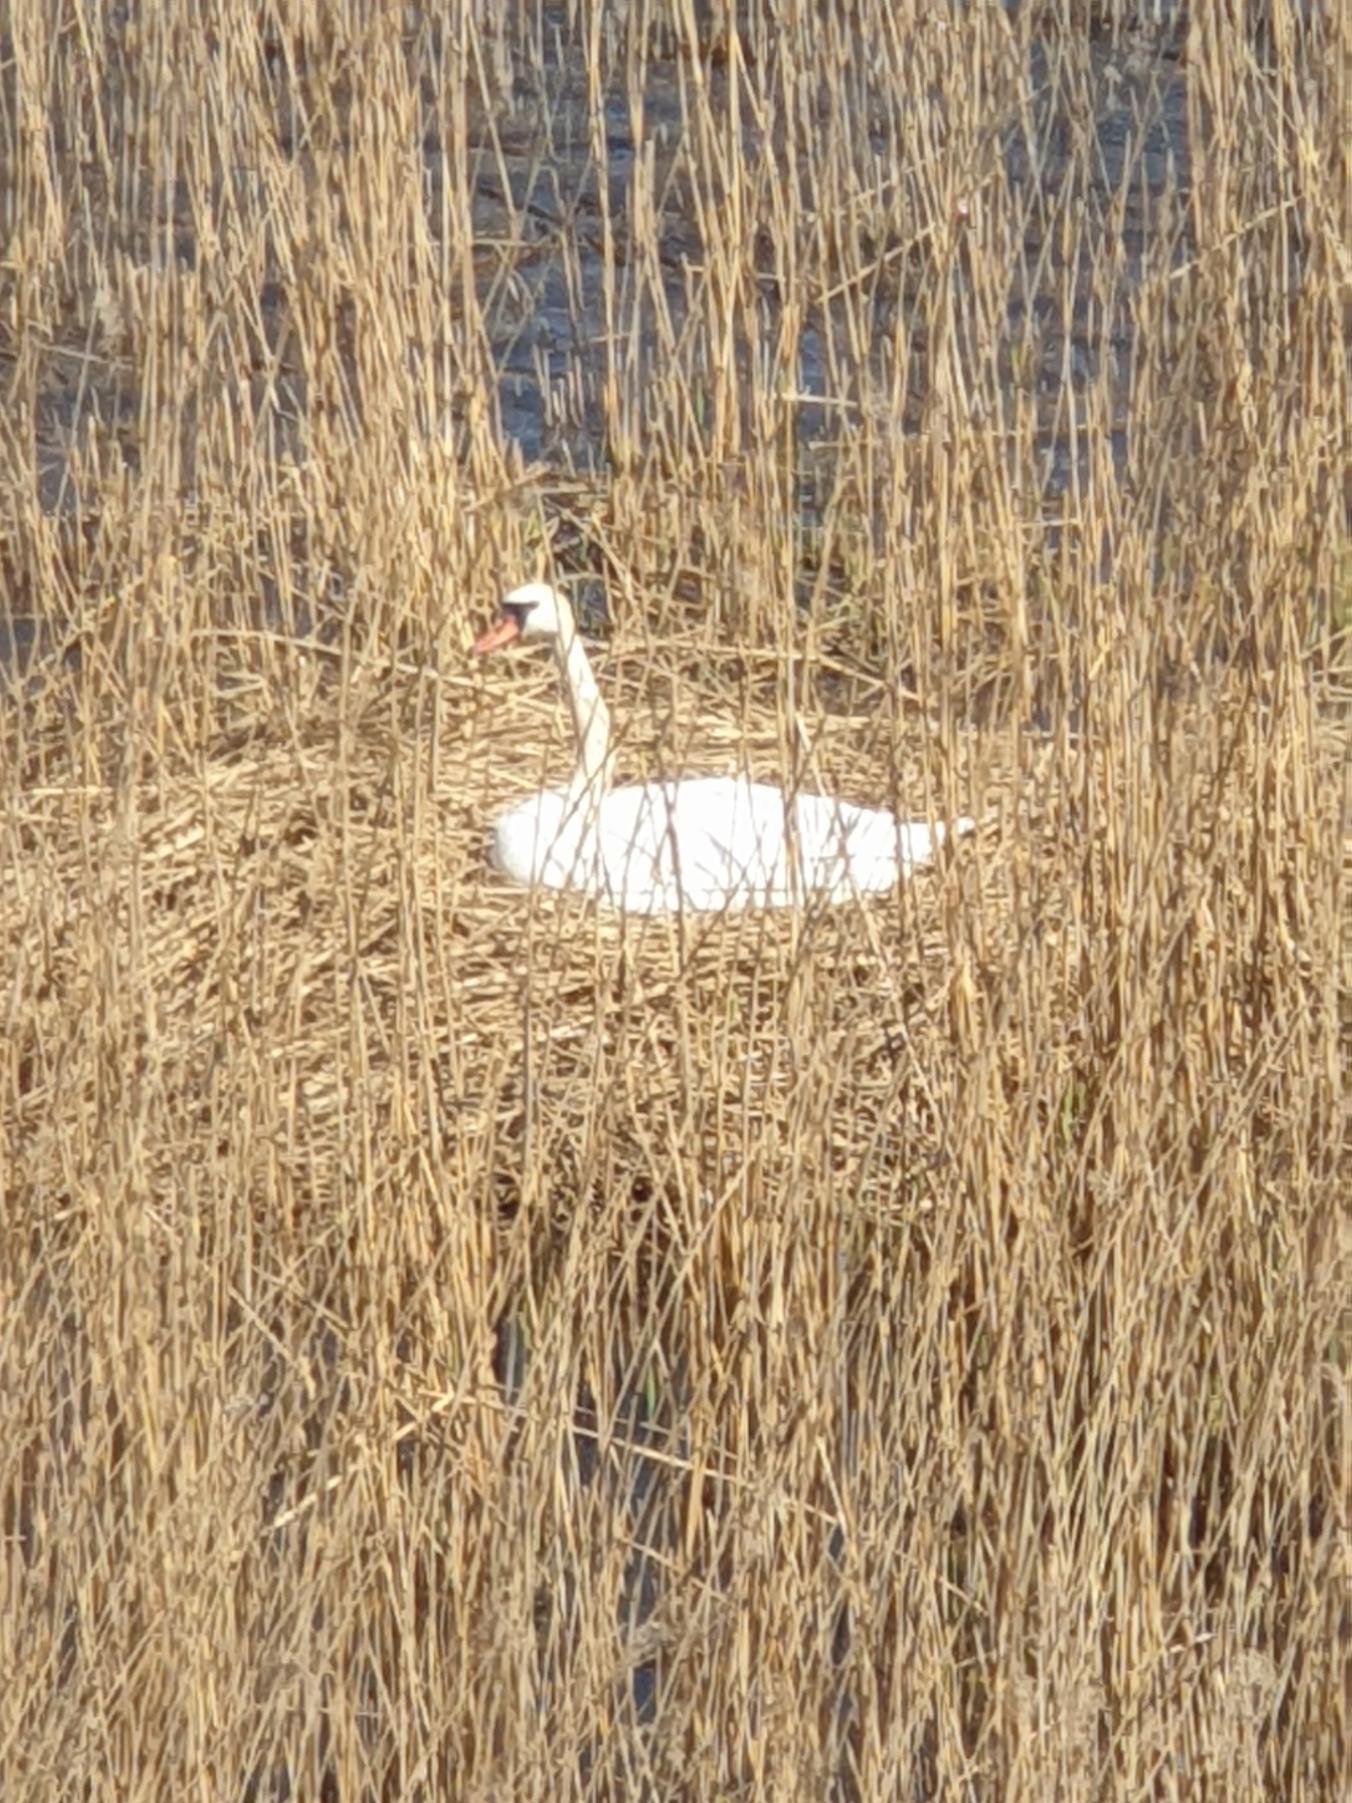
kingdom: Animalia
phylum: Chordata
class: Aves
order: Anseriformes
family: Anatidae
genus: Cygnus
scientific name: Cygnus olor
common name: Knopsvane
